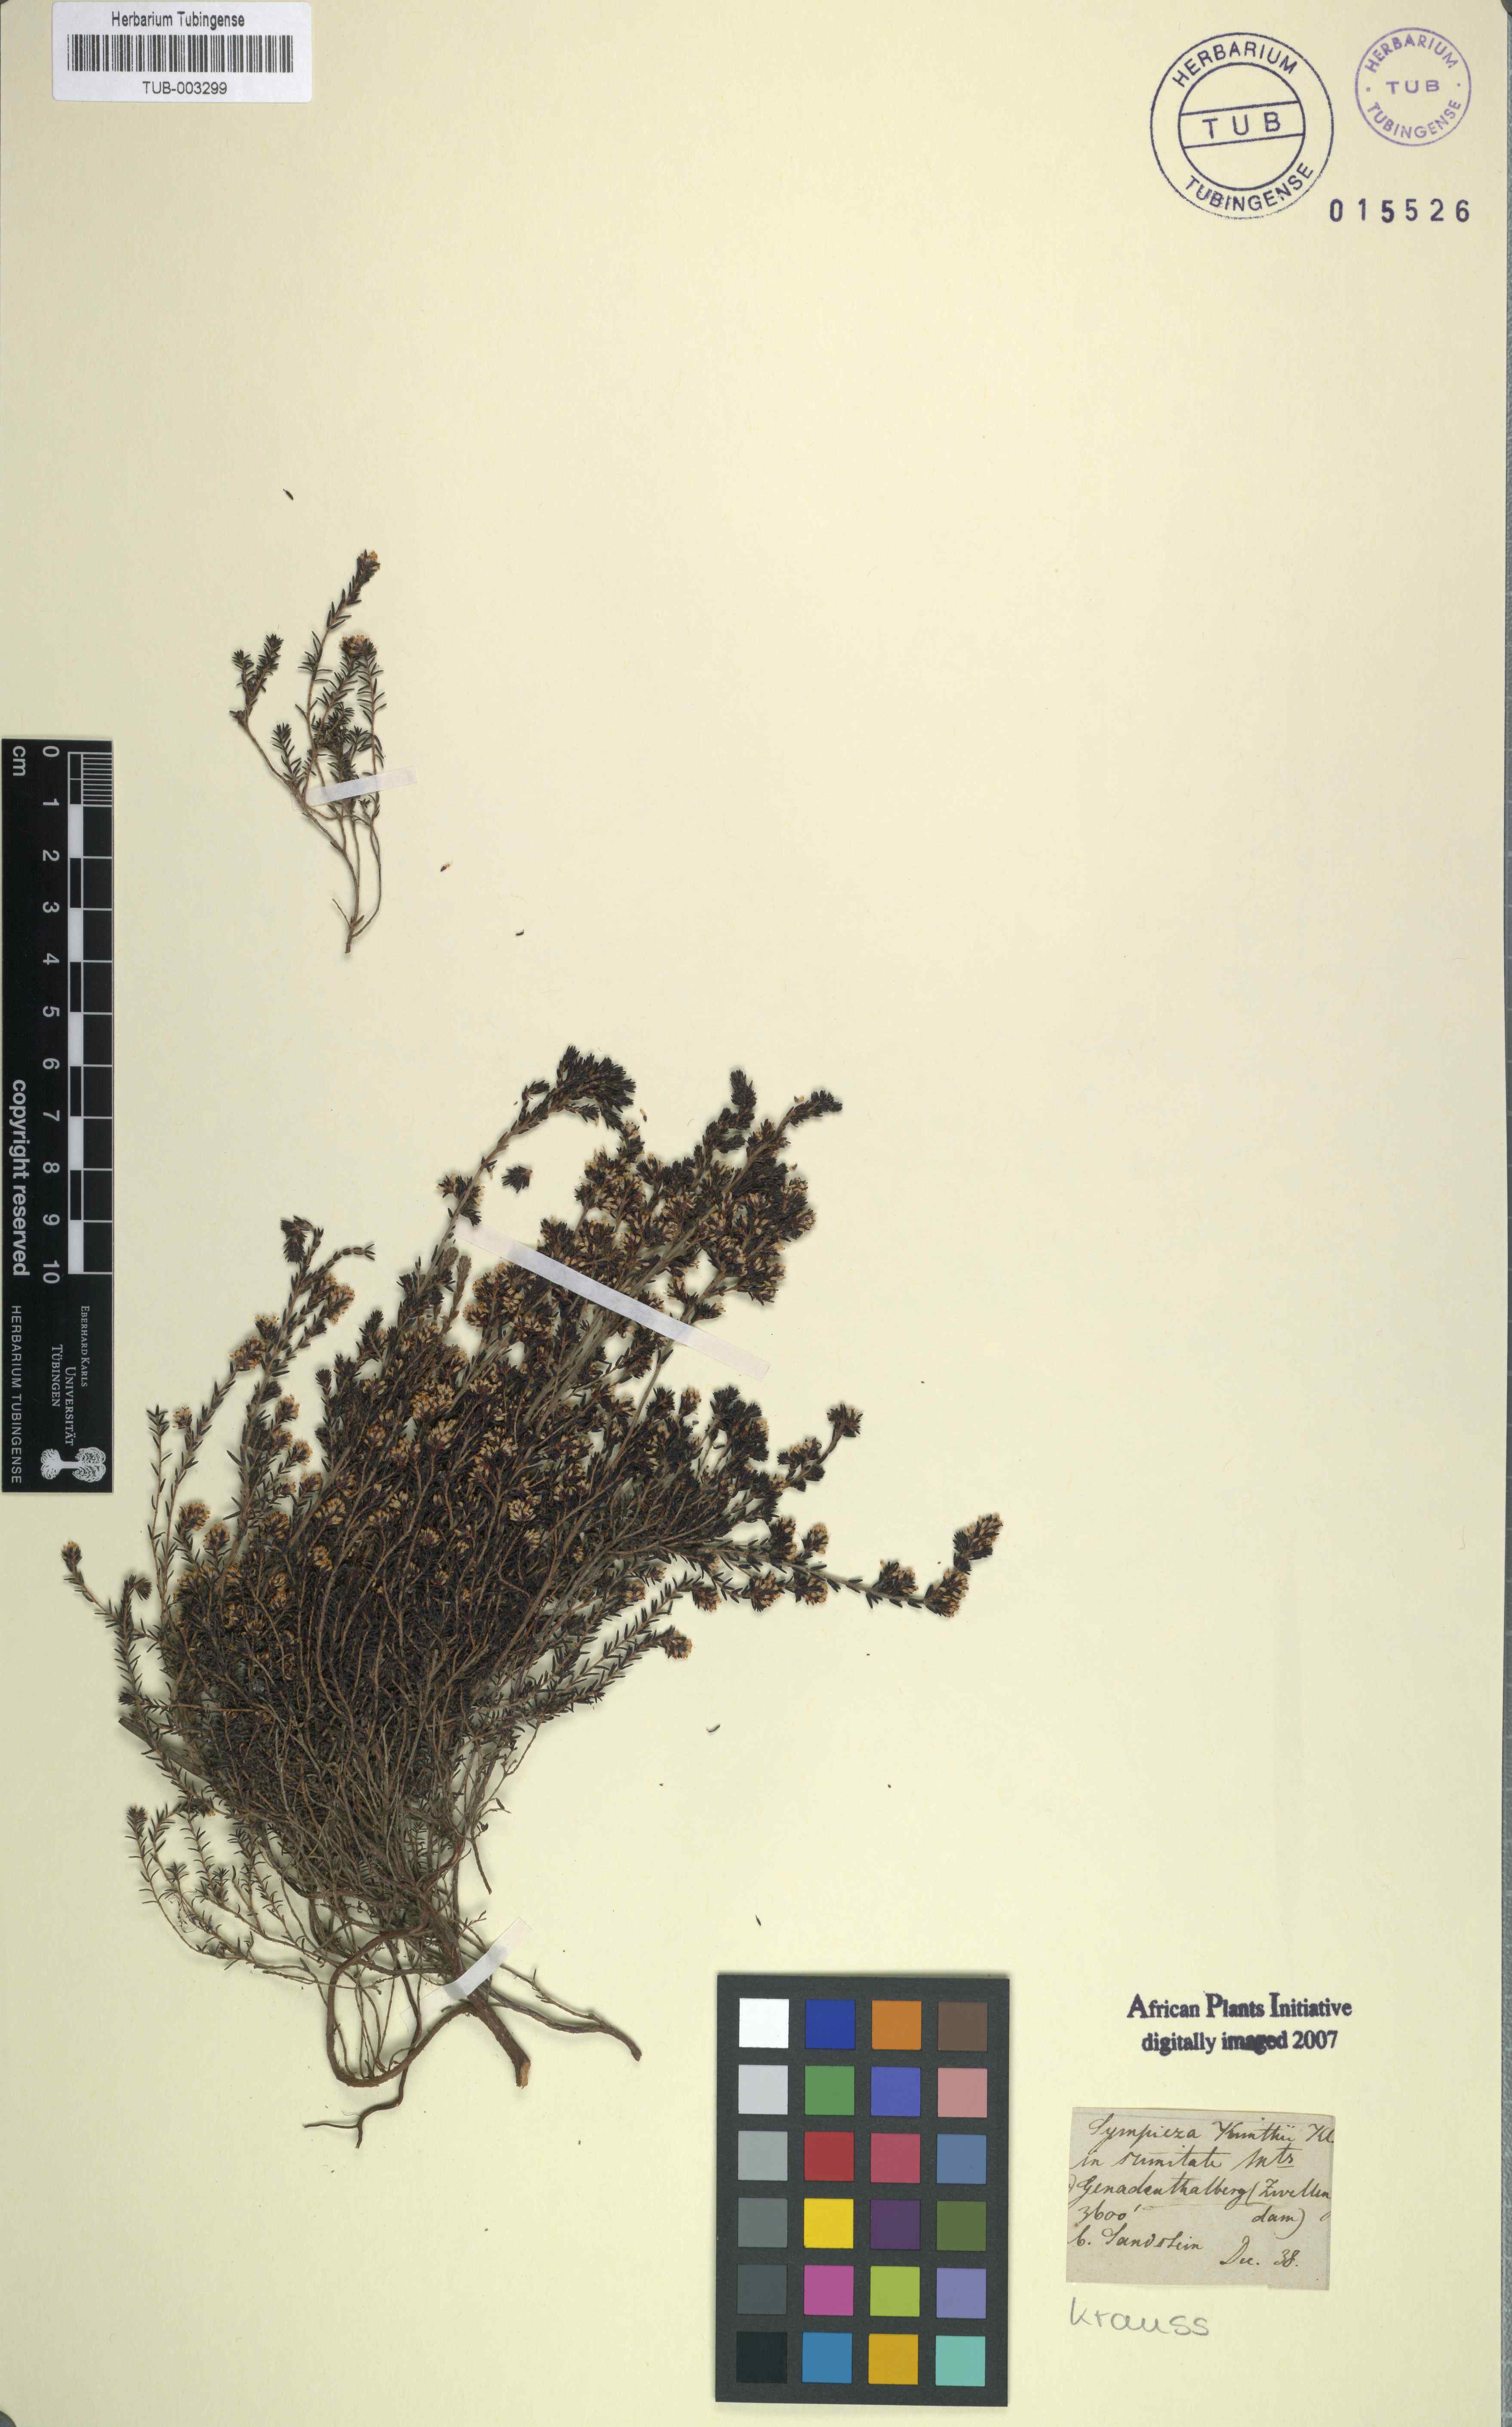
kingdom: Plantae
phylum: Tracheophyta
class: Magnoliopsida
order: Ericales
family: Ericaceae
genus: Erica
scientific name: Erica benthamiana
